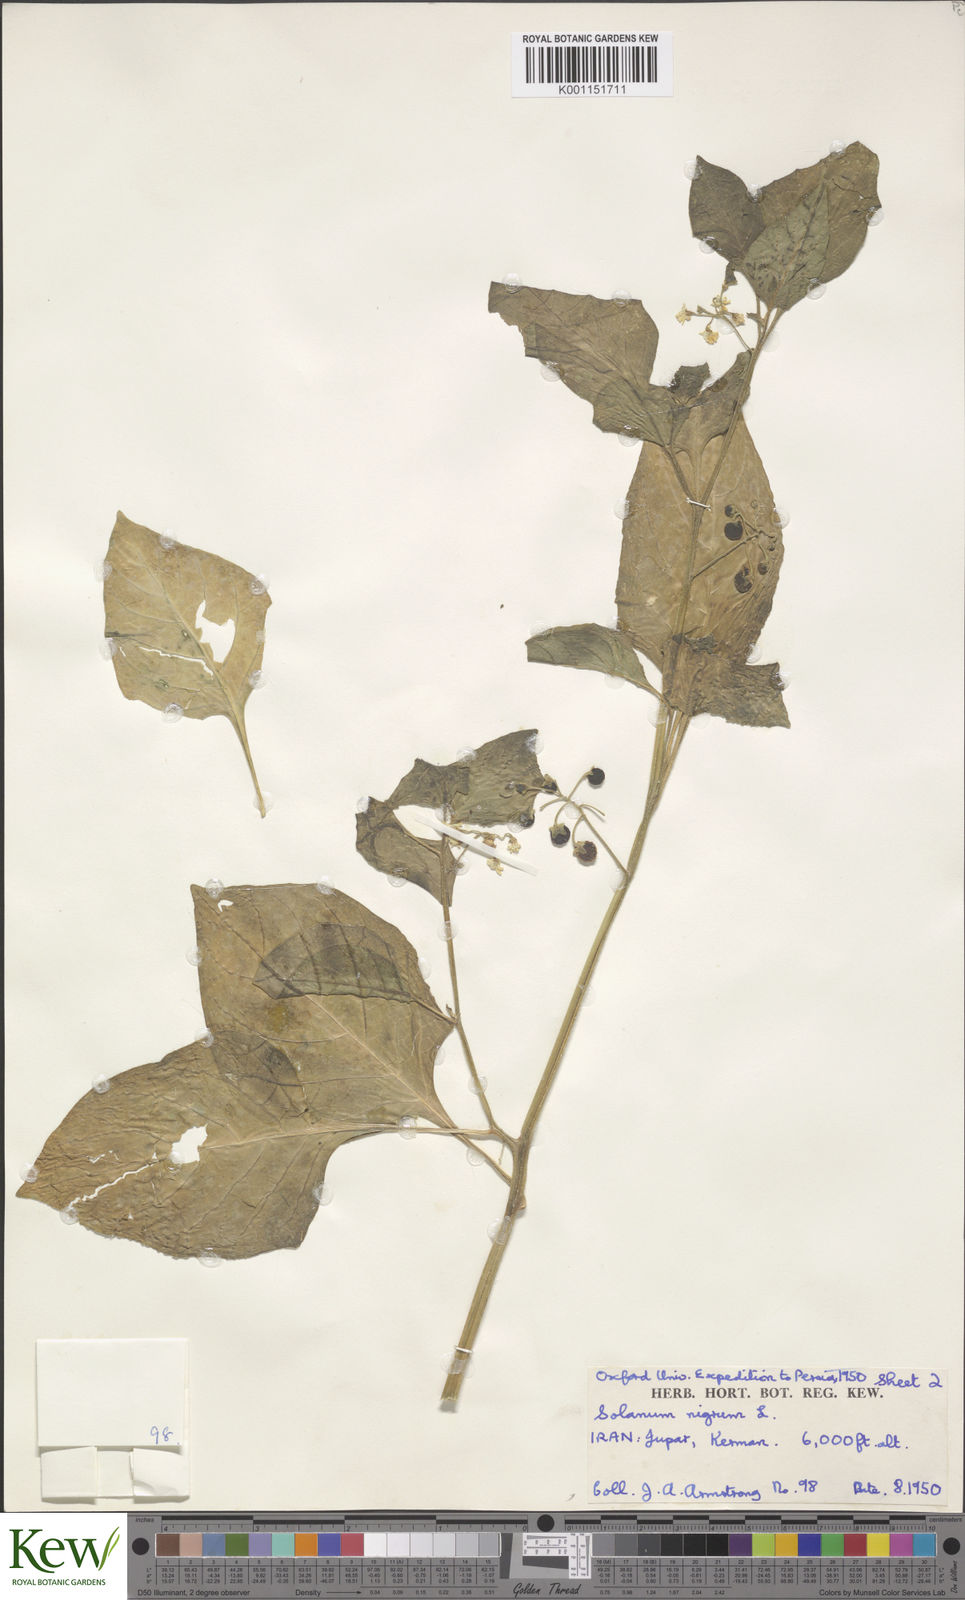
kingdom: Plantae
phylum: Tracheophyta
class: Magnoliopsida
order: Solanales
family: Solanaceae
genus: Solanum
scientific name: Solanum nigrum
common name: Black nightshade
